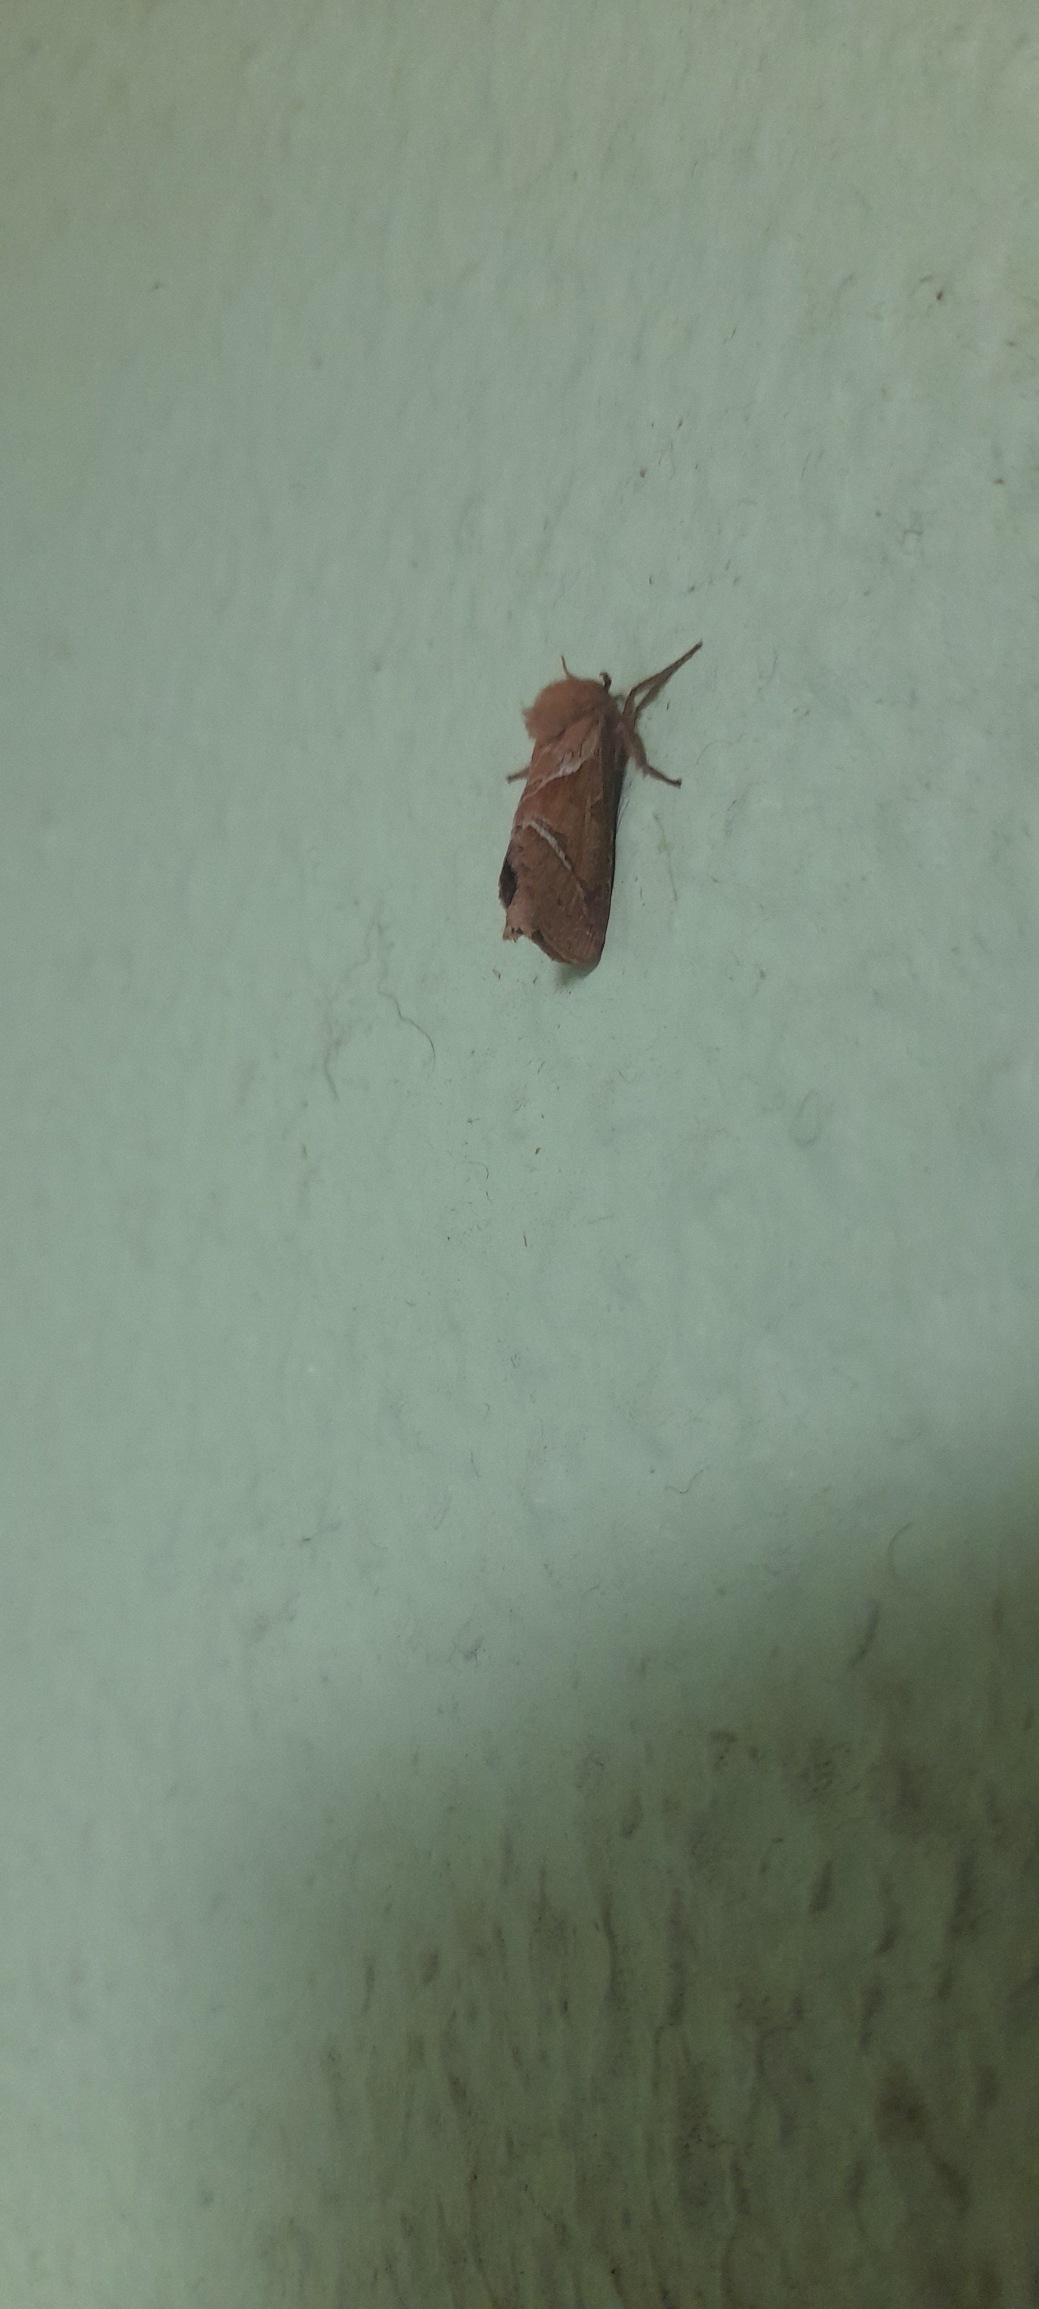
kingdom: Animalia
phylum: Arthropoda
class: Insecta
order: Lepidoptera
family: Hepialidae
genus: Triodia
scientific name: Triodia sylvina
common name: Skræpperodæder
